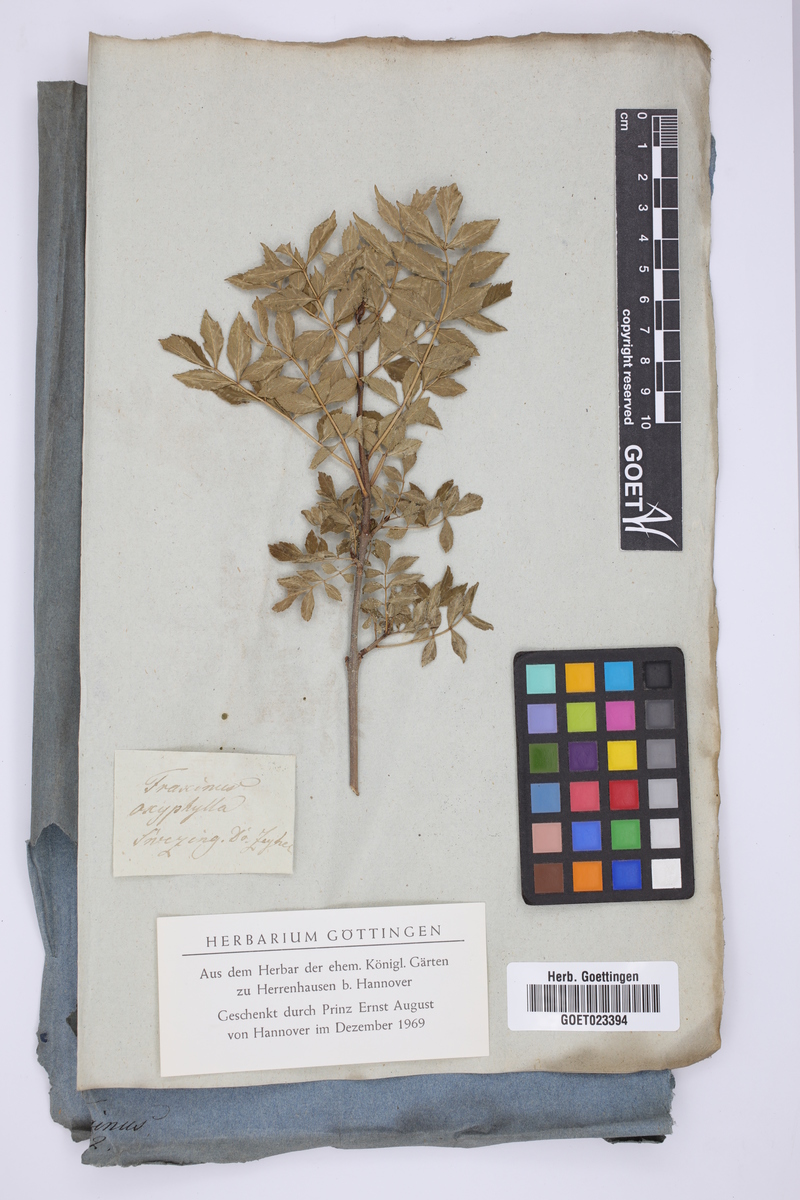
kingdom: Plantae
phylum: Tracheophyta
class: Magnoliopsida
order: Lamiales
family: Oleaceae
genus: Fraxinus
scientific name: Fraxinus angustifolia
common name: Narrow-leafed ash
